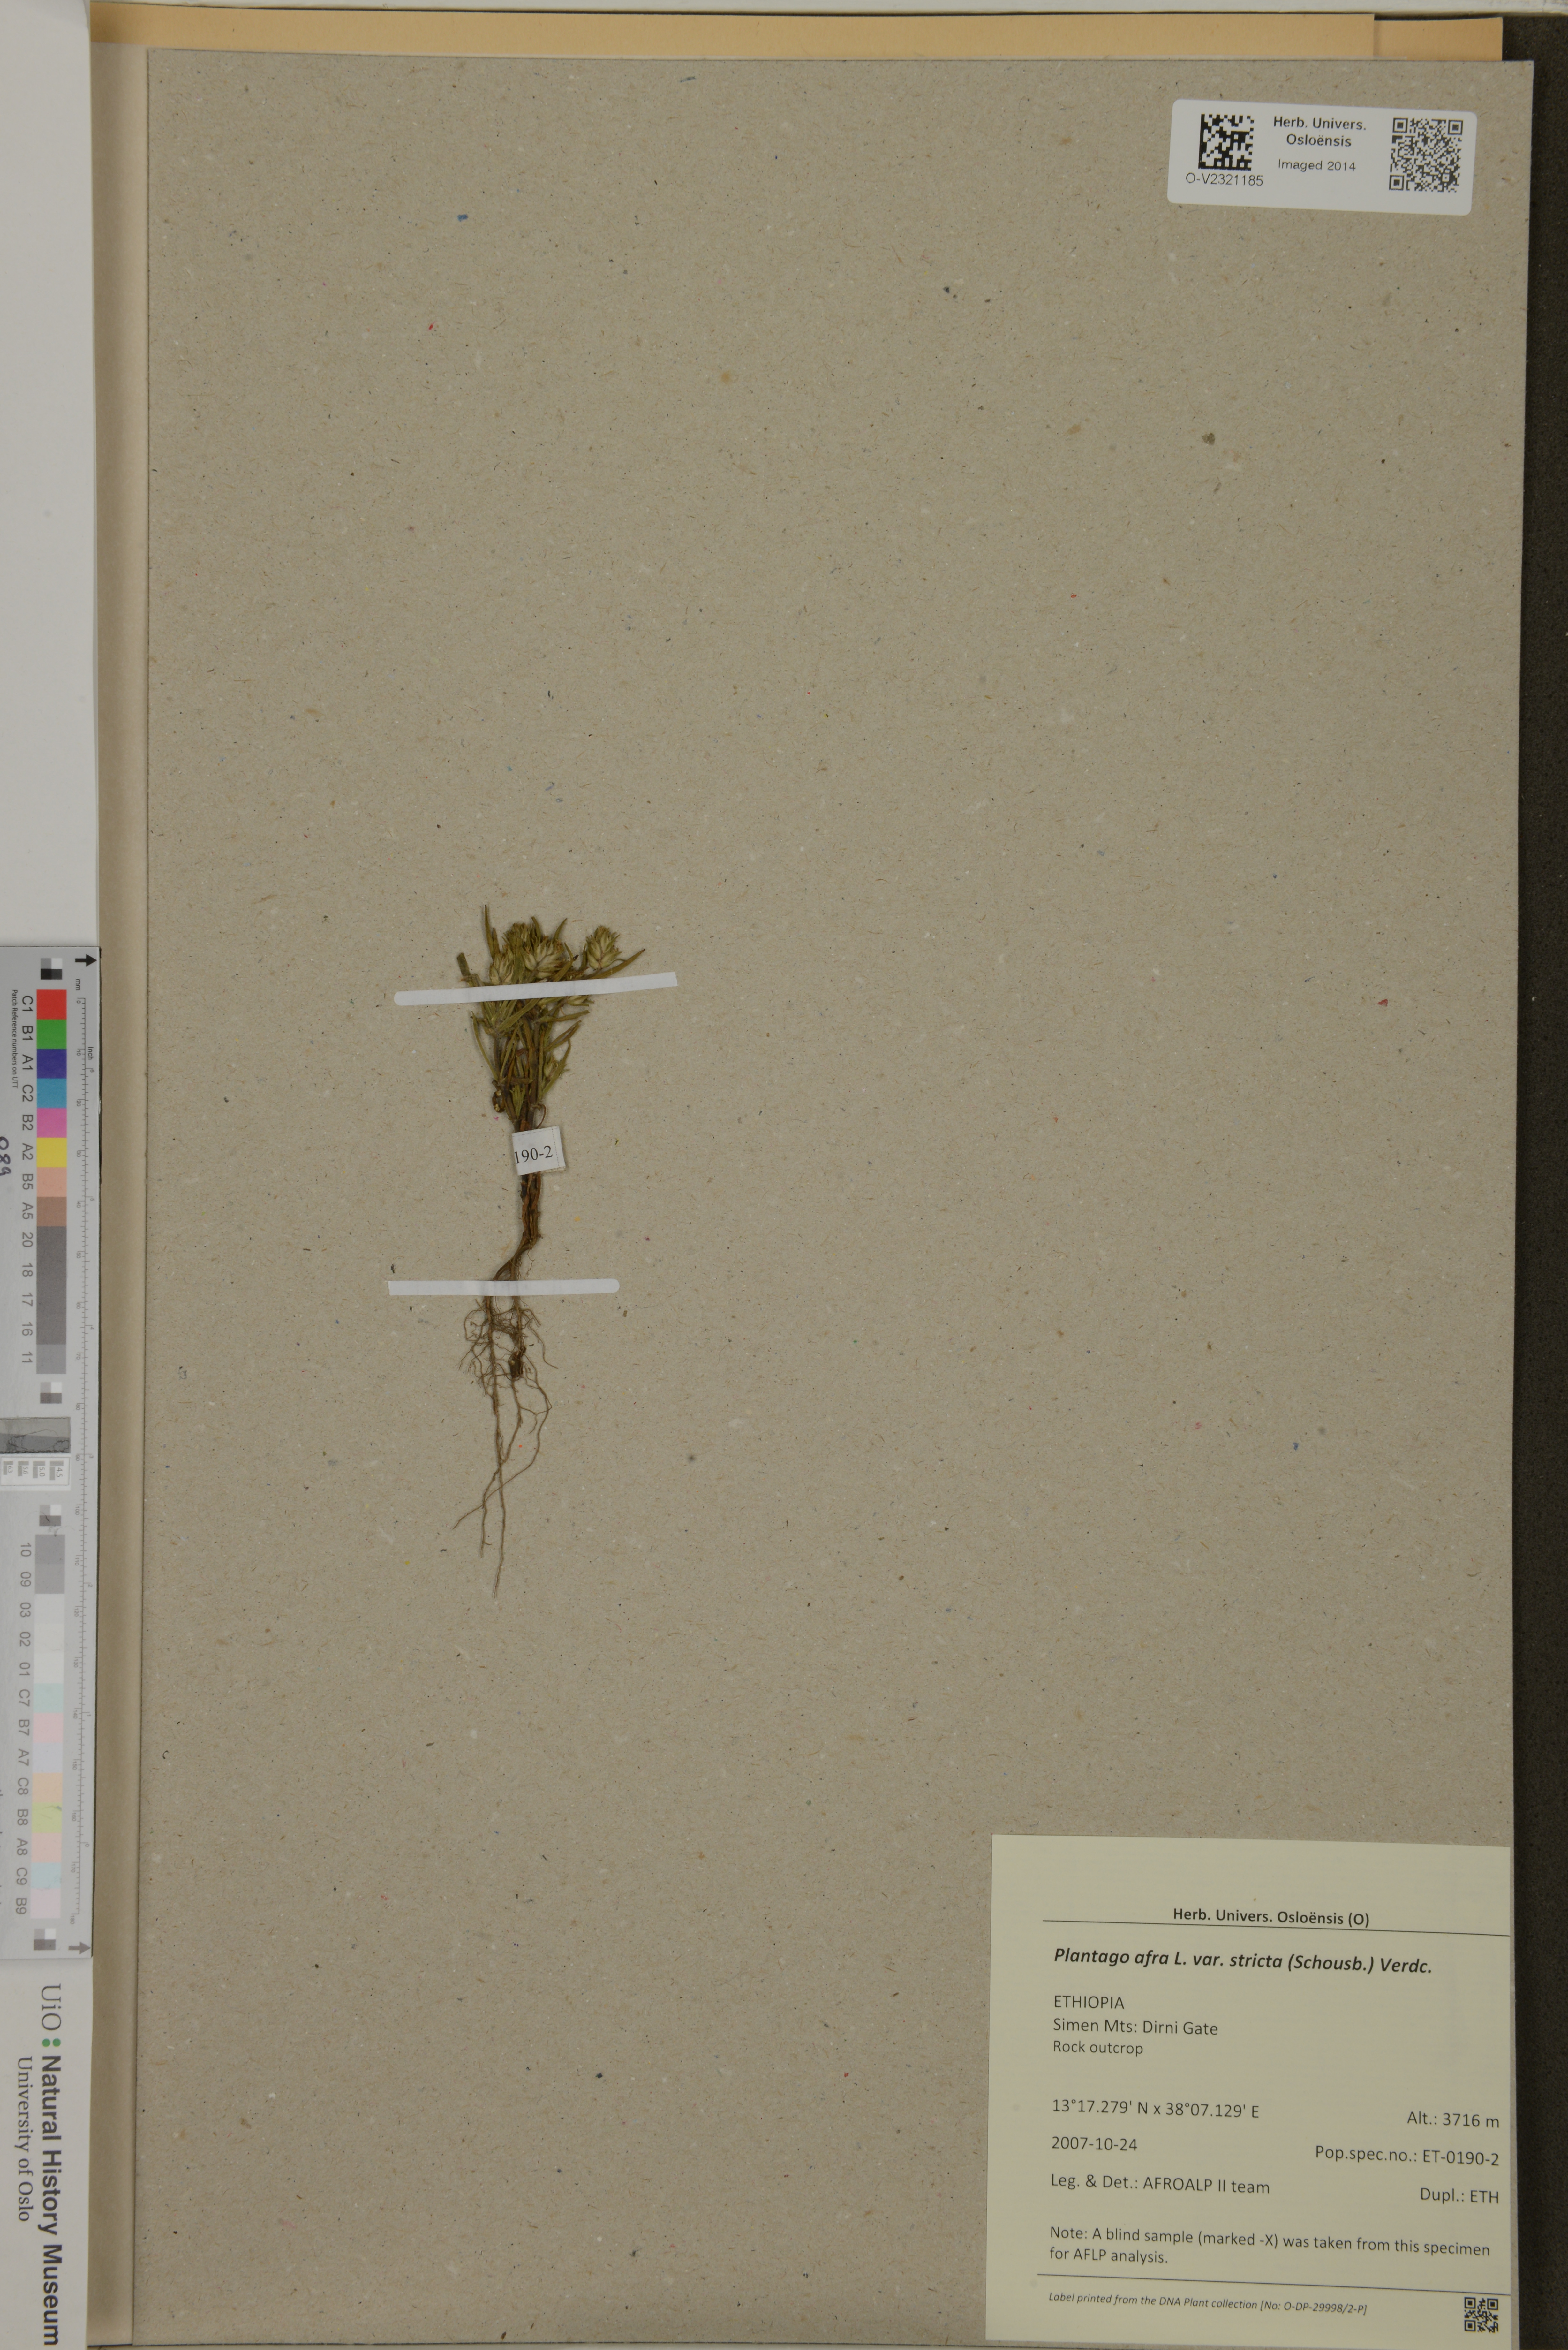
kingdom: Plantae
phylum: Tracheophyta
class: Magnoliopsida
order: Lamiales
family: Plantaginaceae
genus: Plantago
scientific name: Plantago afra
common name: Glandular plantain
